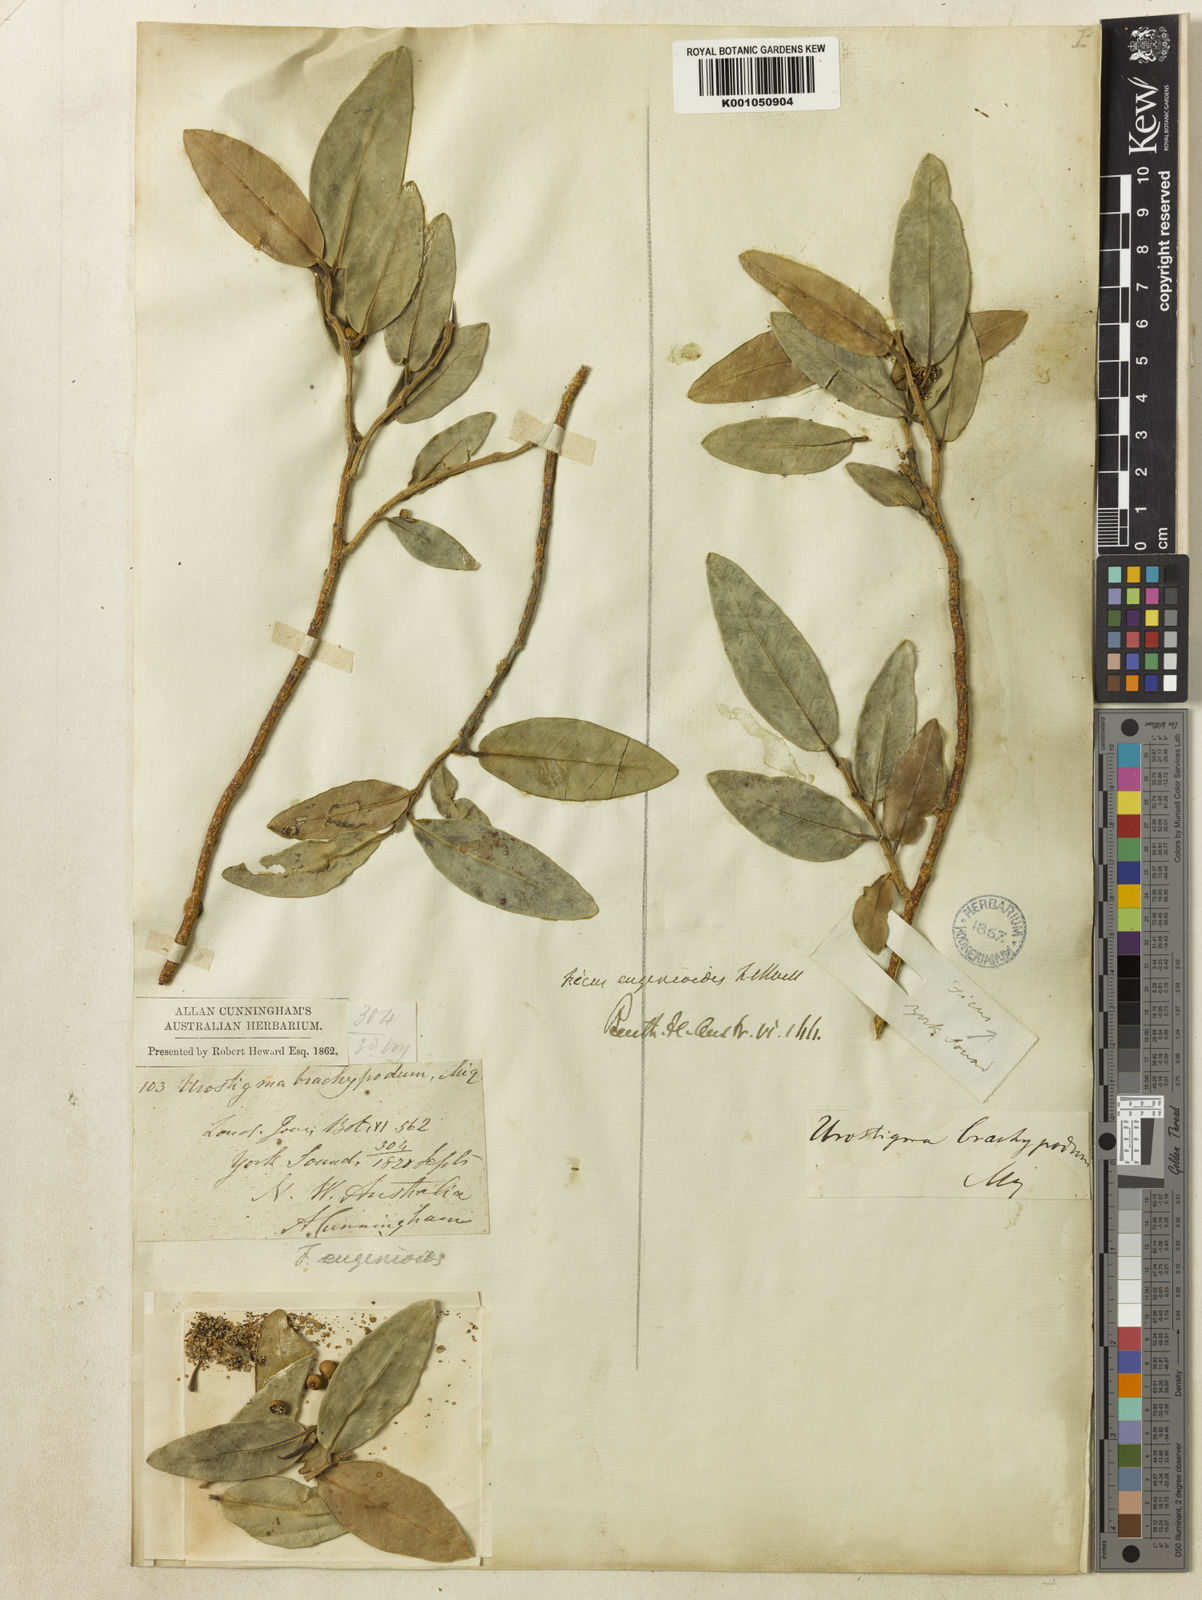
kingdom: Plantae
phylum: Tracheophyta
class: Magnoliopsida
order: Rosales
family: Moraceae
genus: Ficus
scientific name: Ficus obliqua
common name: Small-leaf fig
